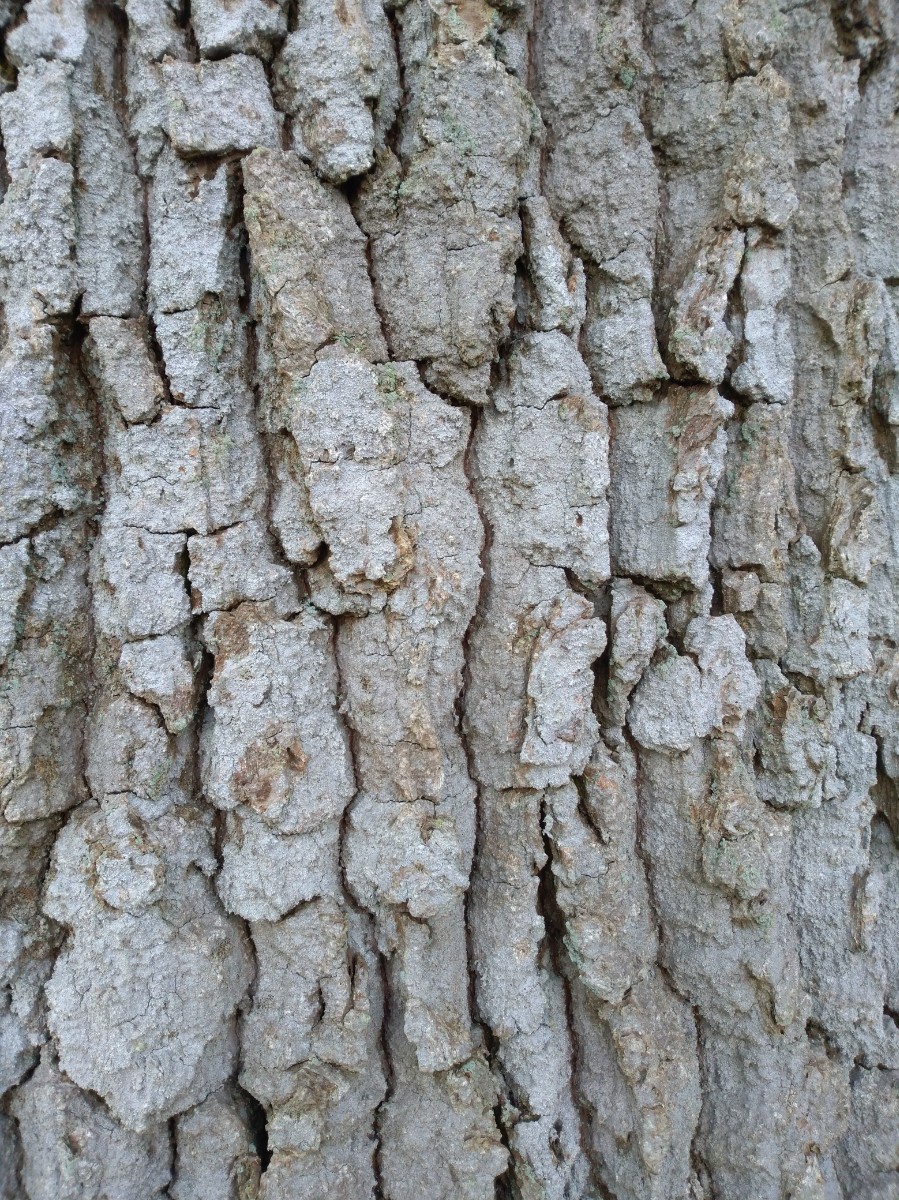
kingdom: Fungi
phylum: Ascomycota
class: Arthoniomycetes
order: Arthoniales
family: Roccellaceae
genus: Lecanactis
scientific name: Lecanactis abietina
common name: grå dugskivelav
